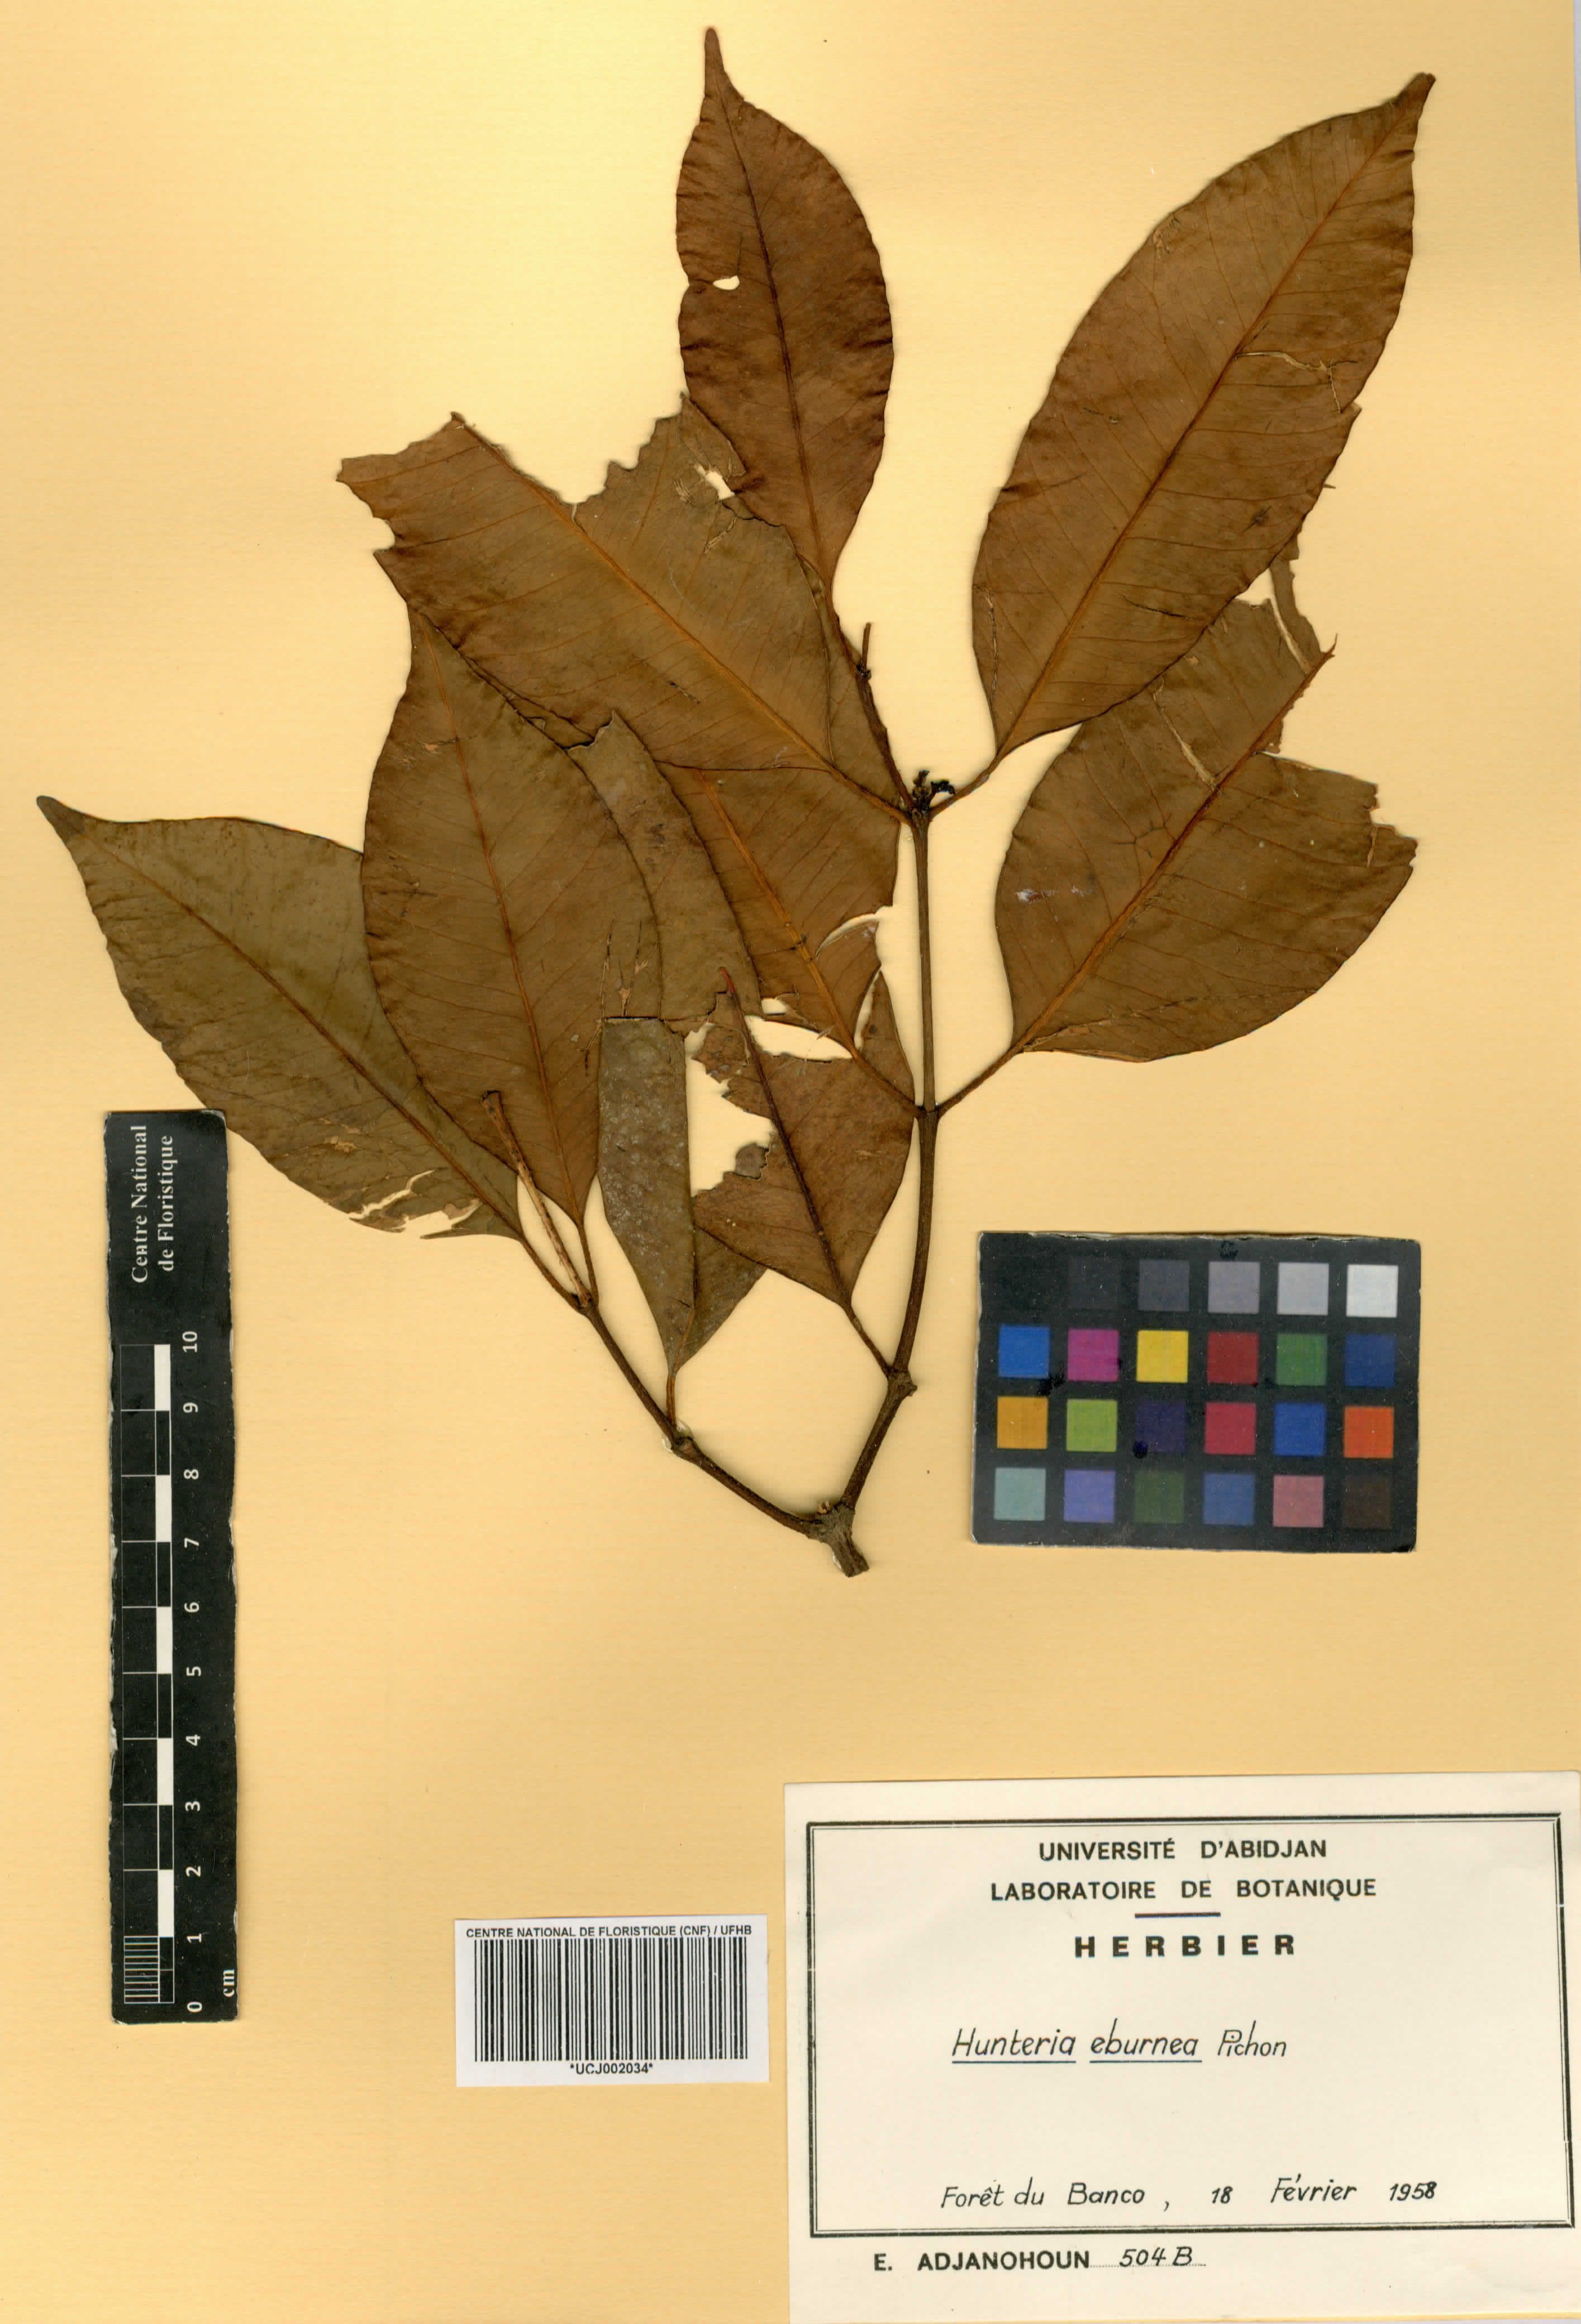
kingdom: Plantae
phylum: Tracheophyta
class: Magnoliopsida
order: Gentianales
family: Apocynaceae
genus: Hunteria
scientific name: Hunteria umbellata
